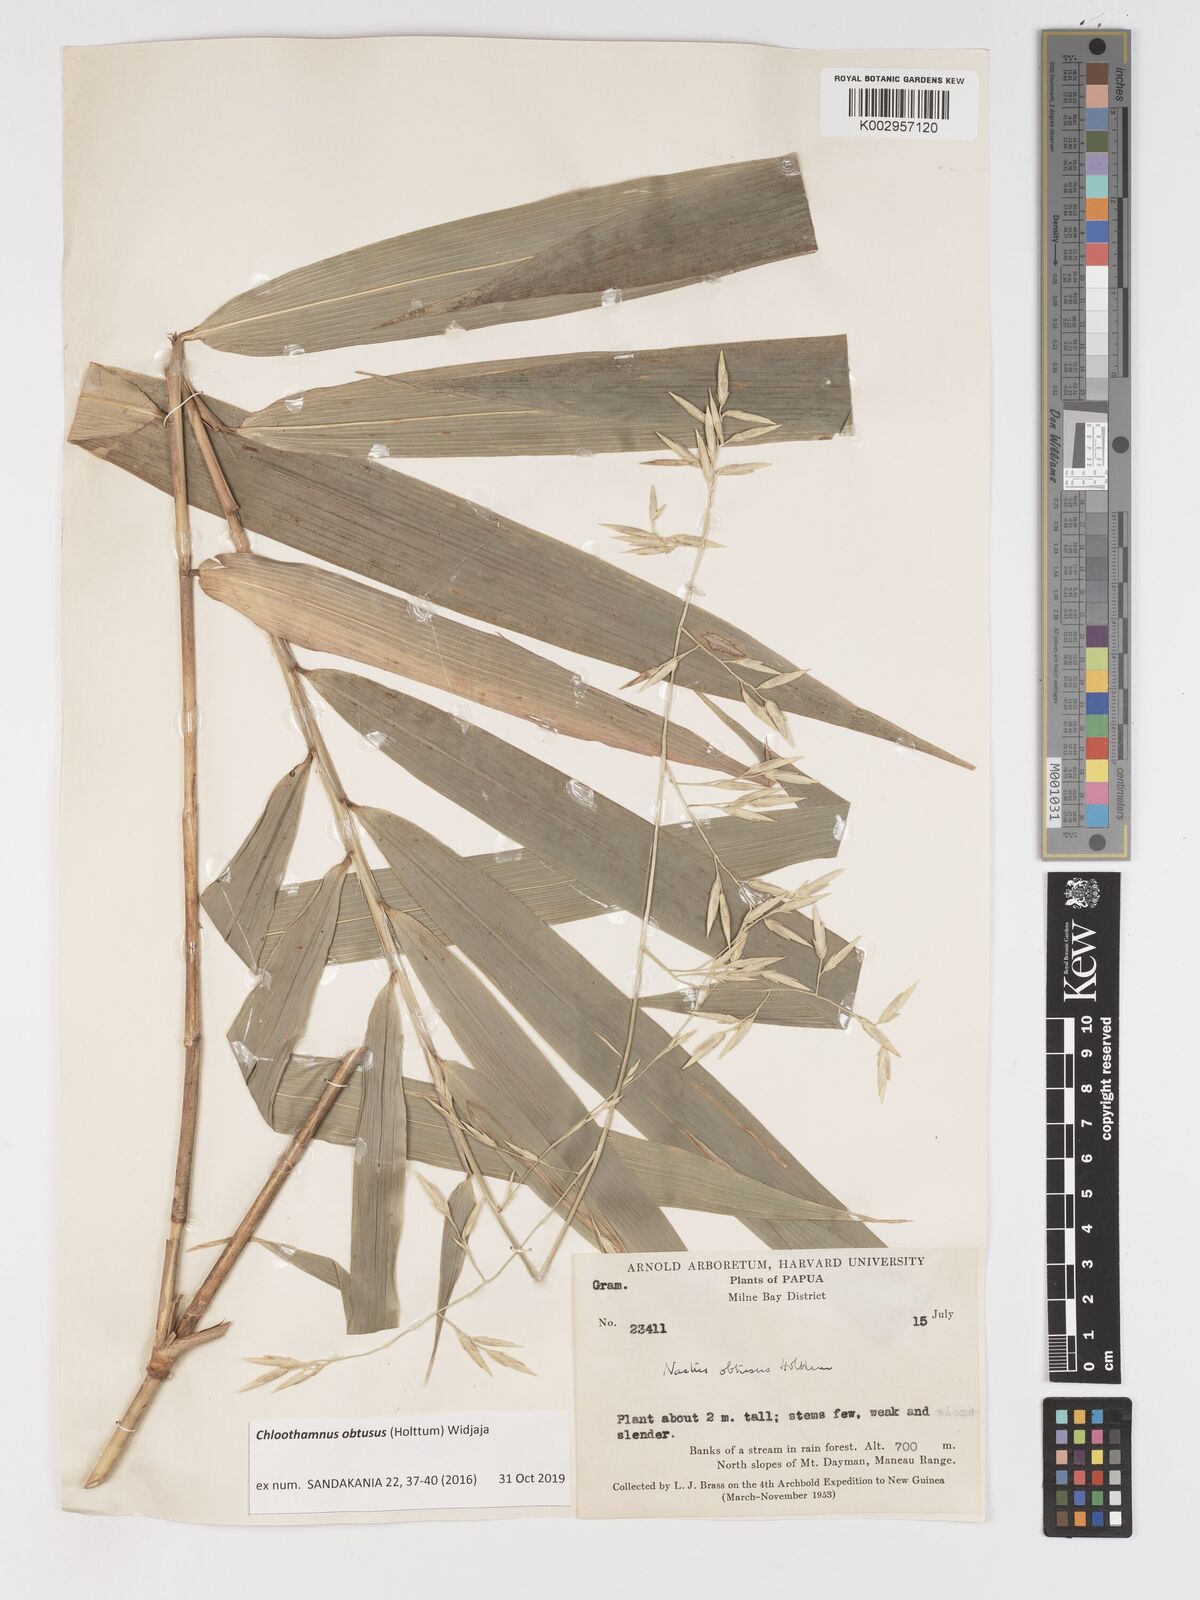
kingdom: Plantae
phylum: Tracheophyta
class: Liliopsida
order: Poales
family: Poaceae
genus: Chloothamnus
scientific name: Chloothamnus obtusus
